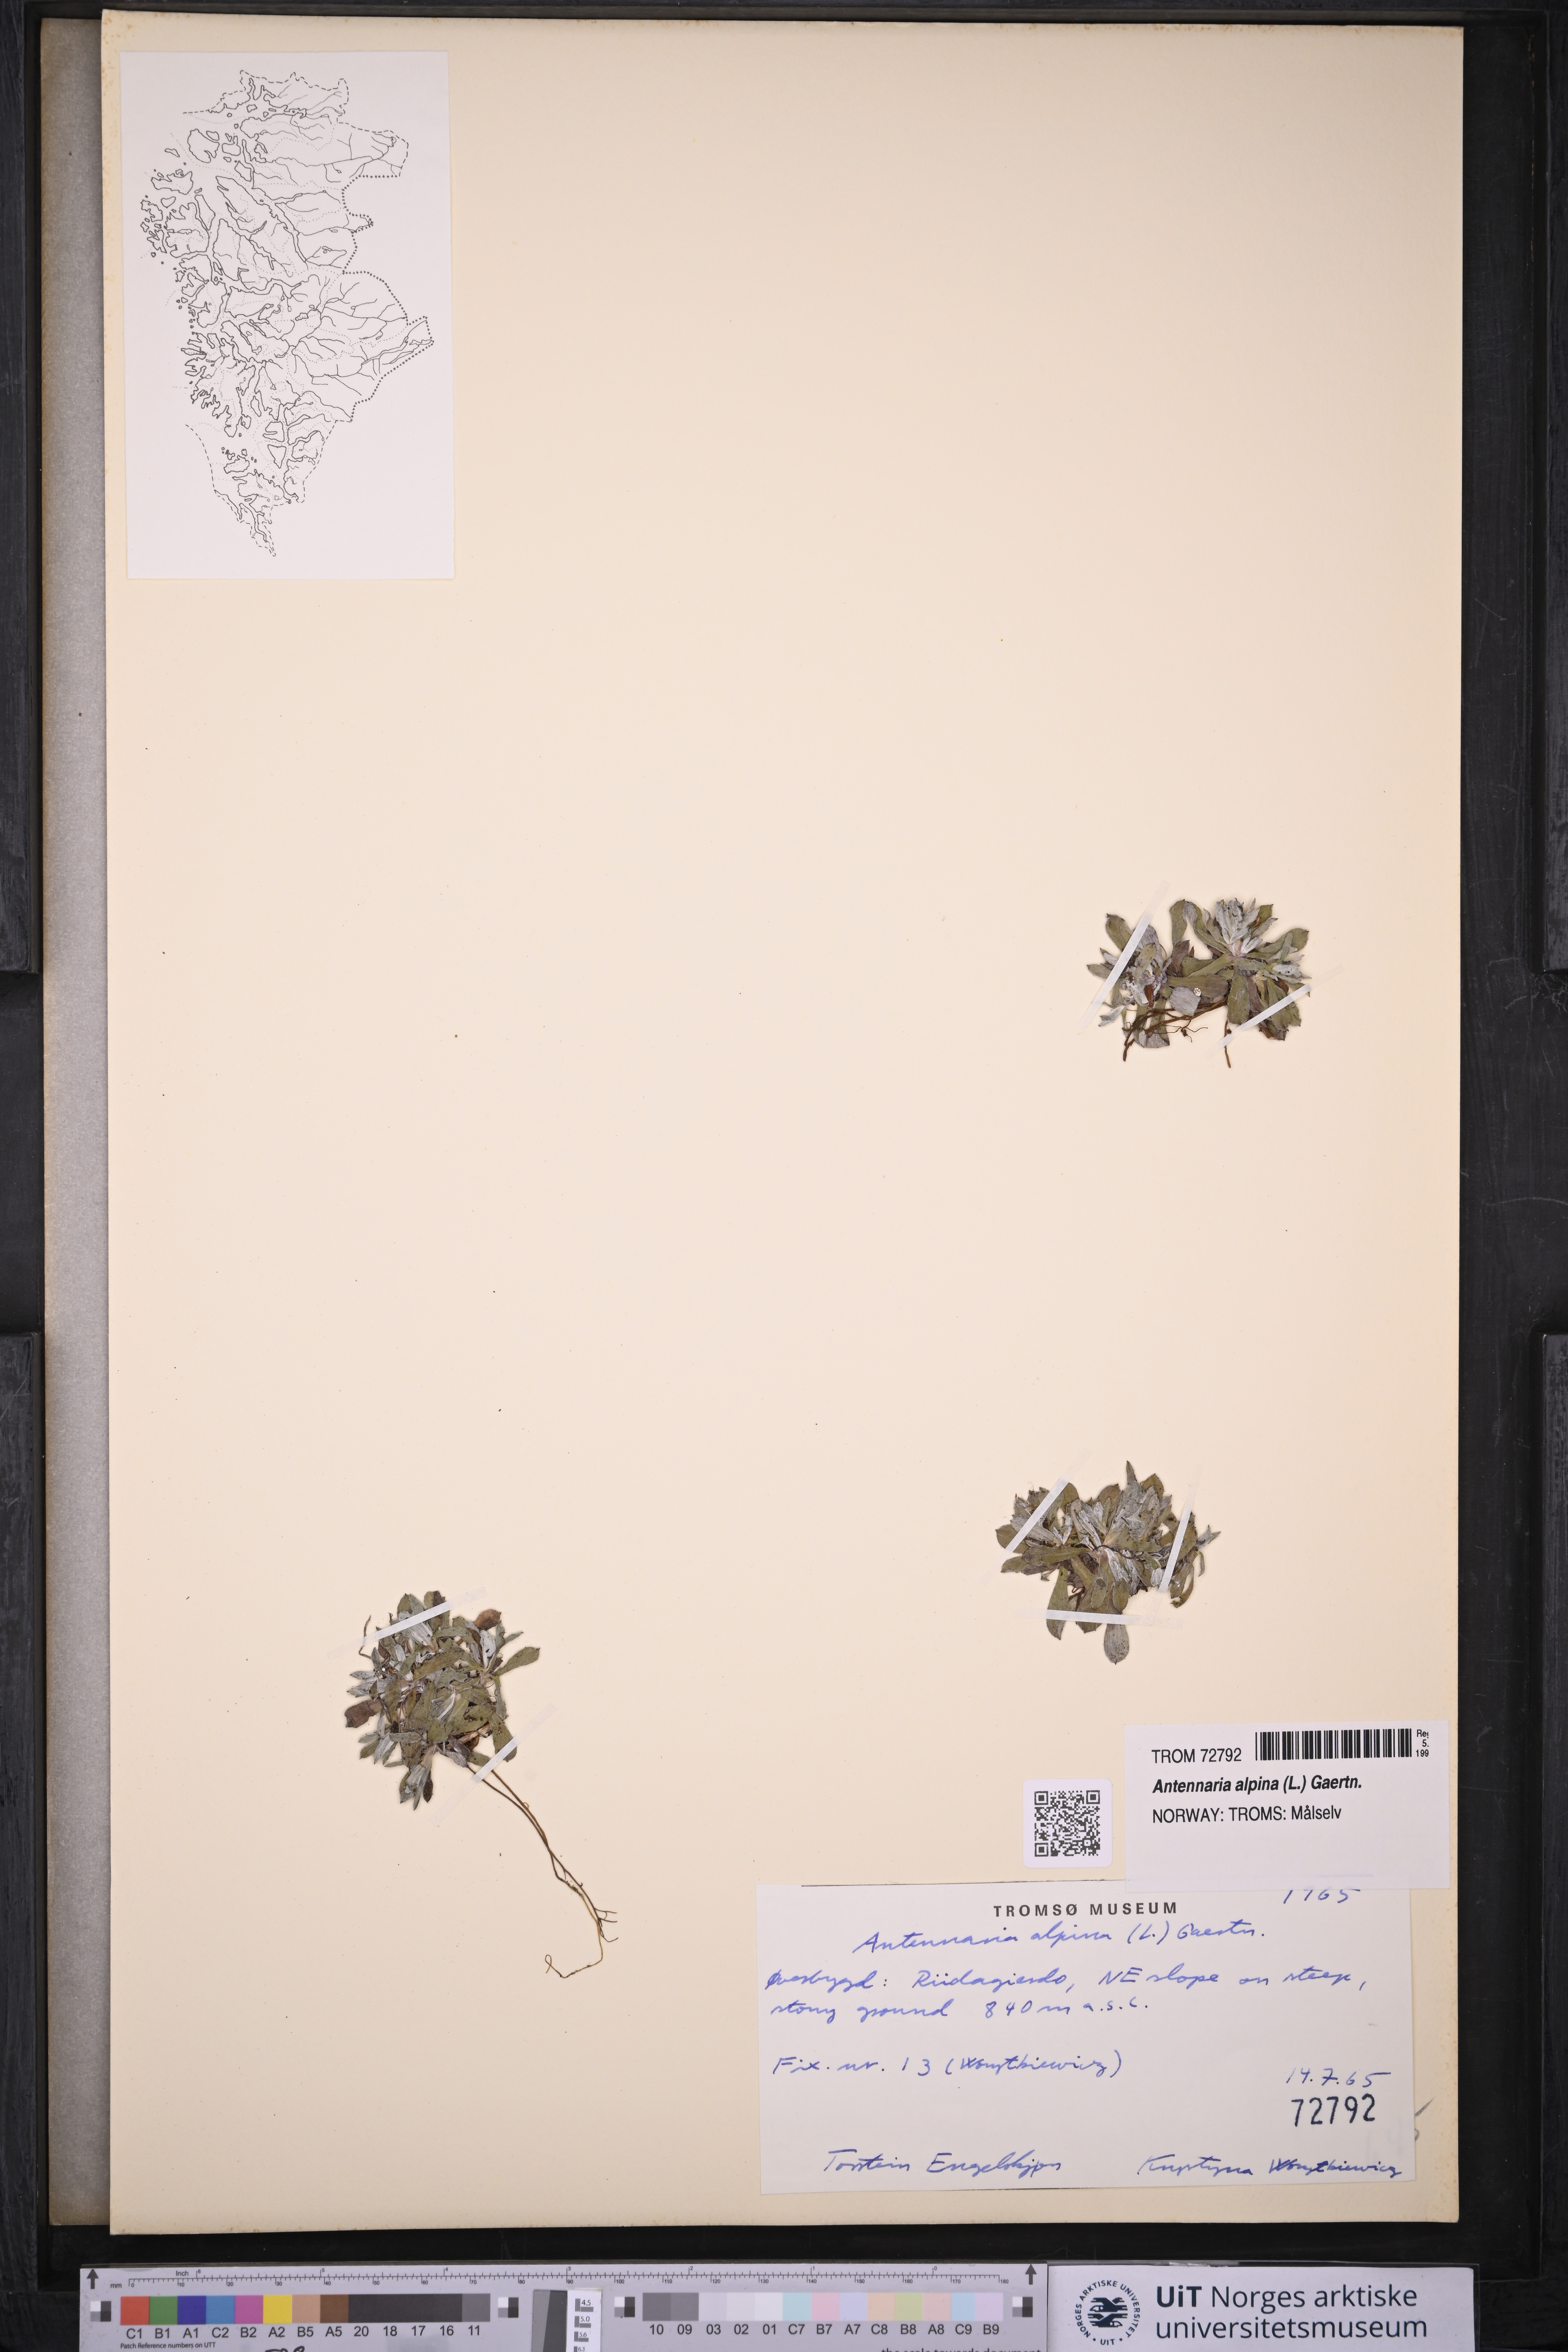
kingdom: Plantae
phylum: Tracheophyta
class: Magnoliopsida
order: Asterales
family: Asteraceae
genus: Antennaria
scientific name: Antennaria alpina
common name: Alpine pussytoes
